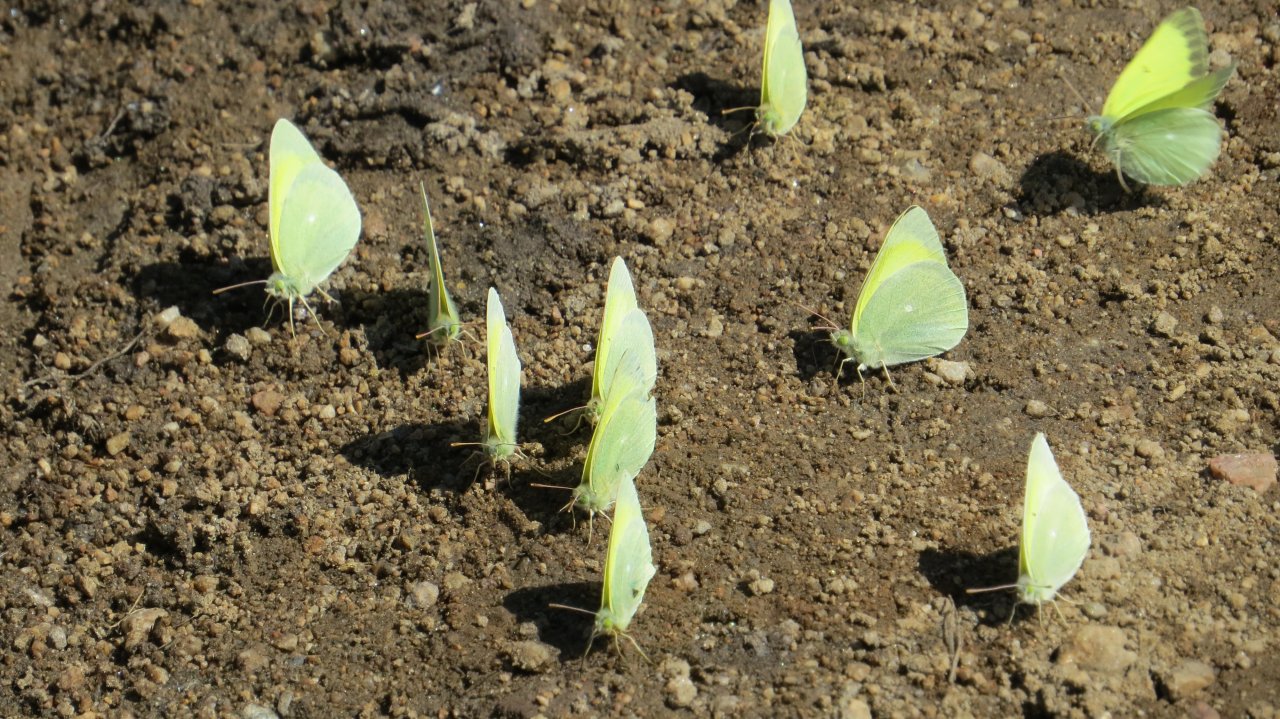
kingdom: Animalia
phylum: Arthropoda
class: Insecta
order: Lepidoptera
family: Pieridae
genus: Colias
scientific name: Colias alexandra
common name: Queen Alexandra's Sulphur
